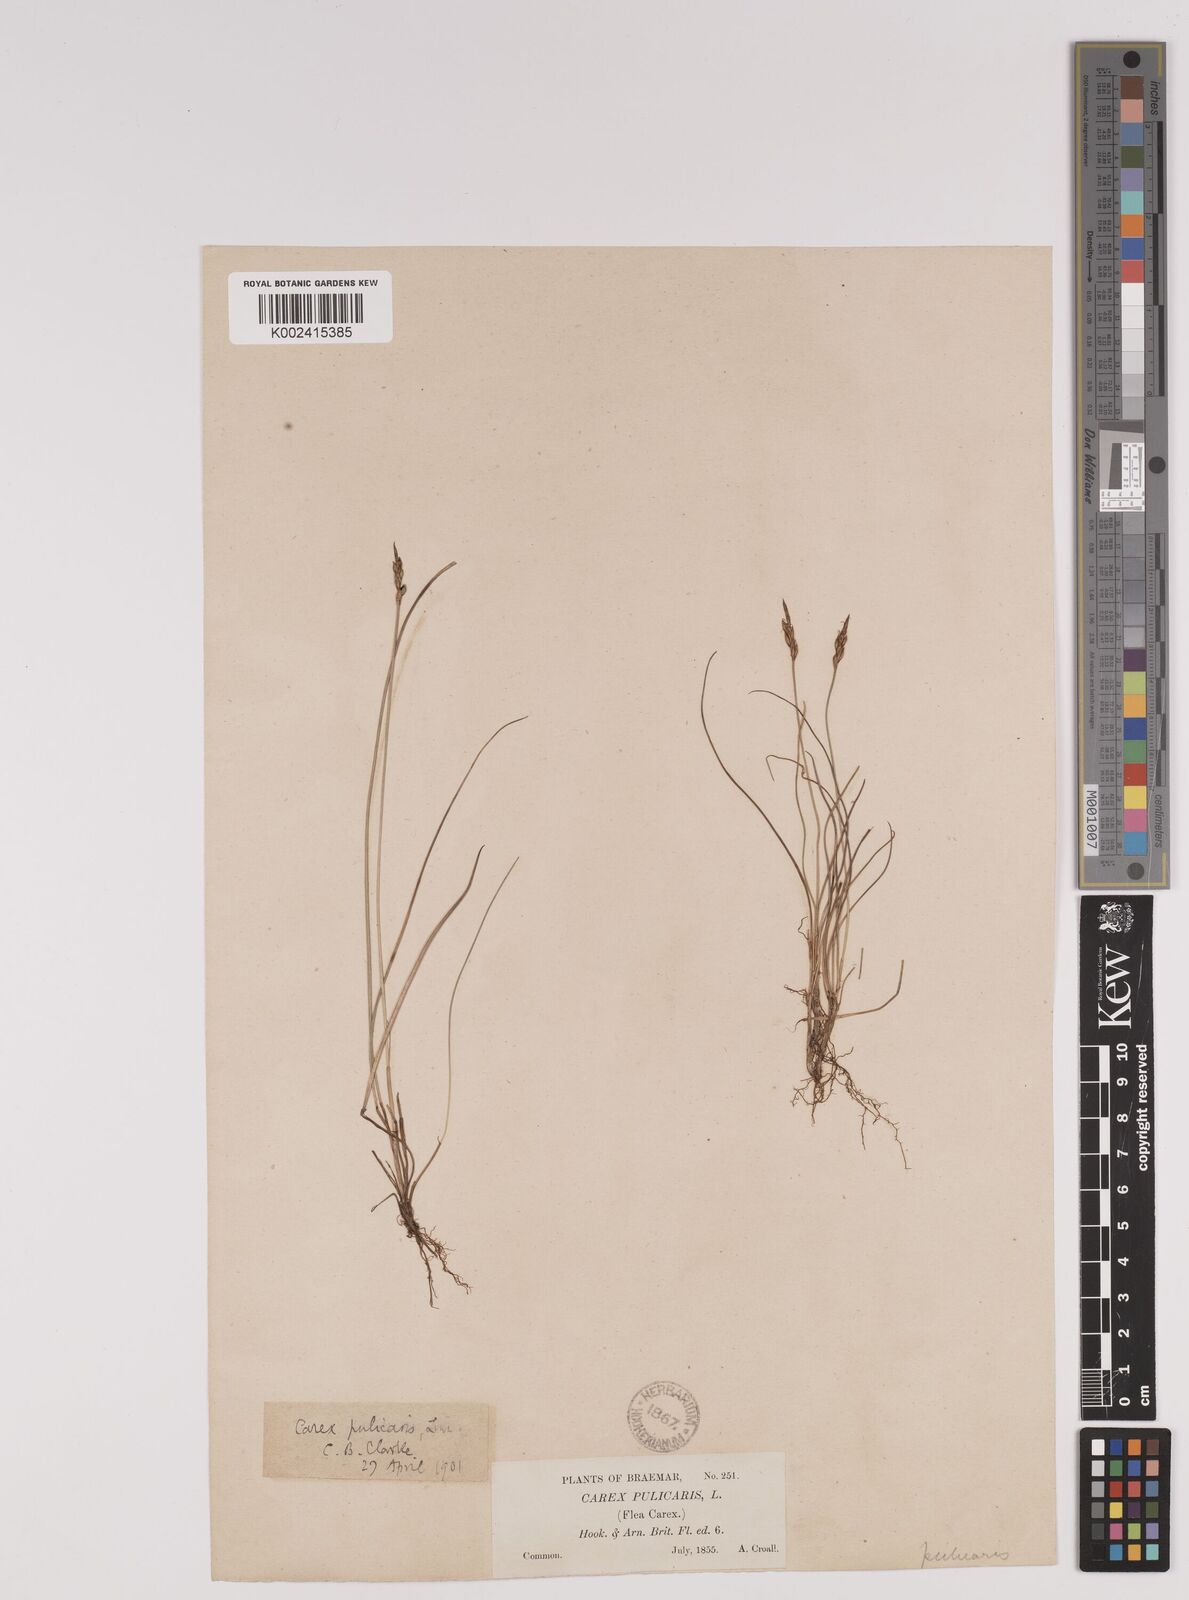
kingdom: Plantae
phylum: Tracheophyta
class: Liliopsida
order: Poales
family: Cyperaceae
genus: Carex
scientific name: Carex pulicaris
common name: Flea sedge
